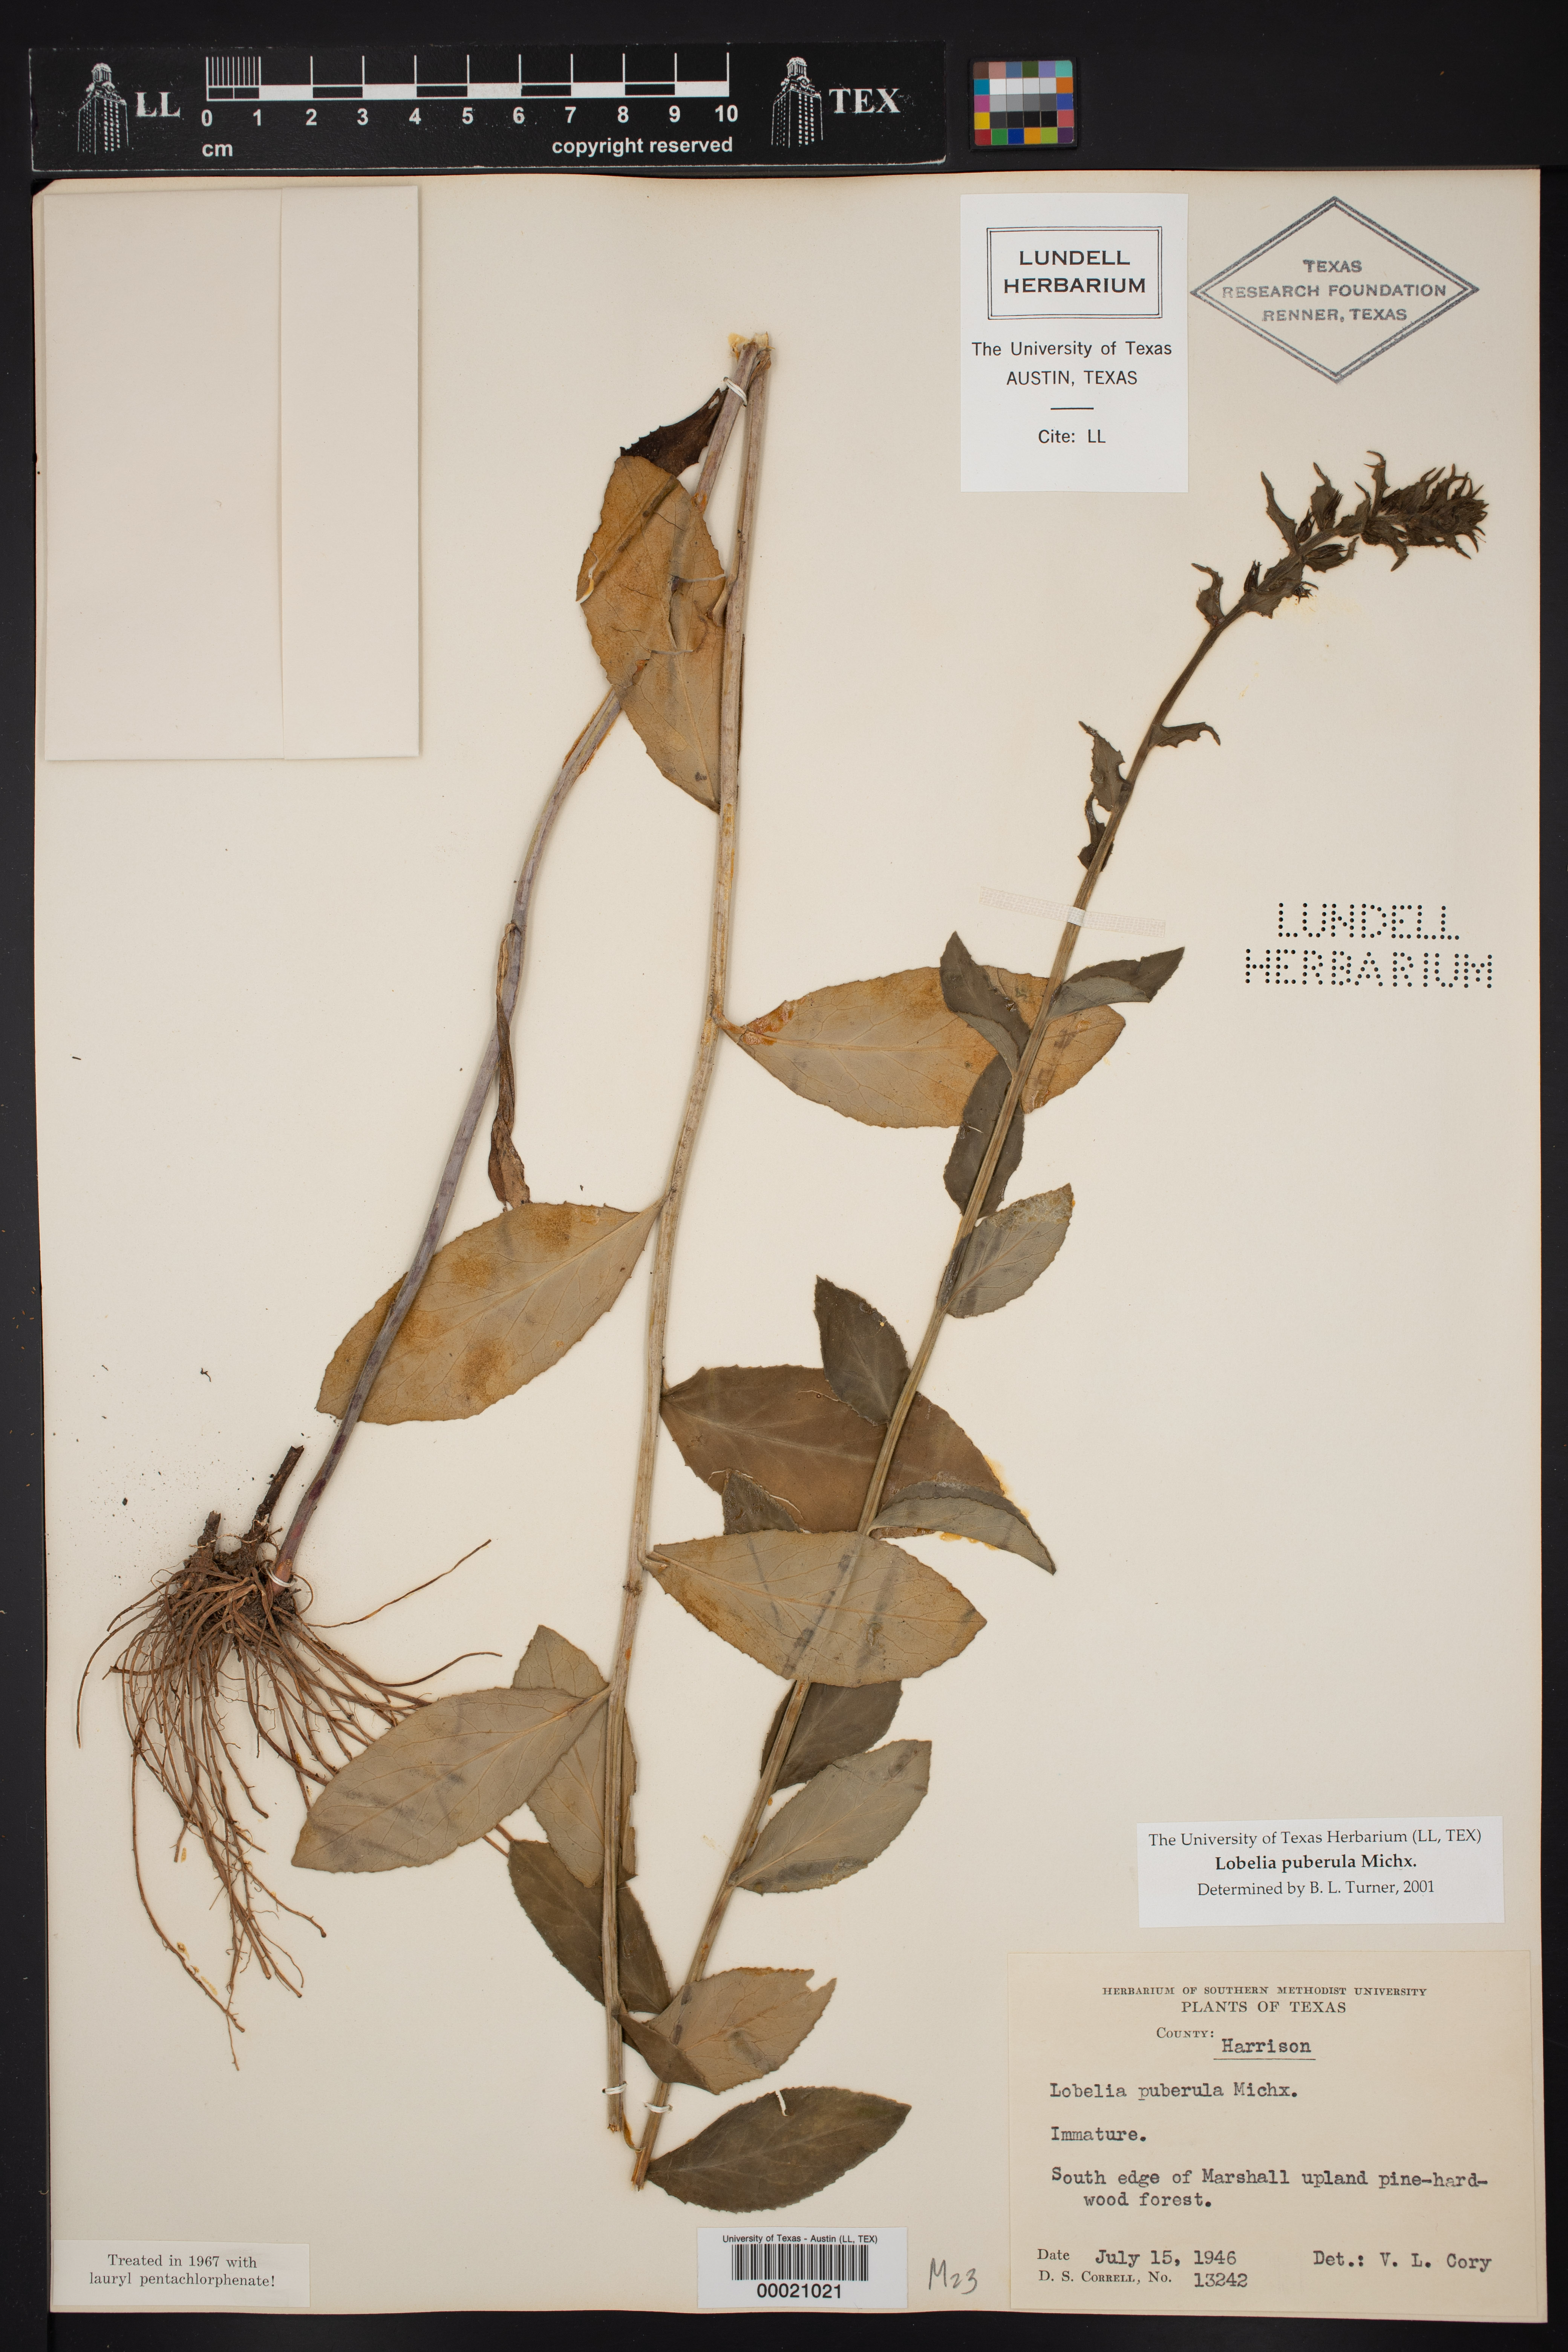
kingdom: Plantae
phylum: Tracheophyta
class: Magnoliopsida
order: Asterales
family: Campanulaceae
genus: Lobelia
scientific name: Lobelia puberula
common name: Purple dewdrop
